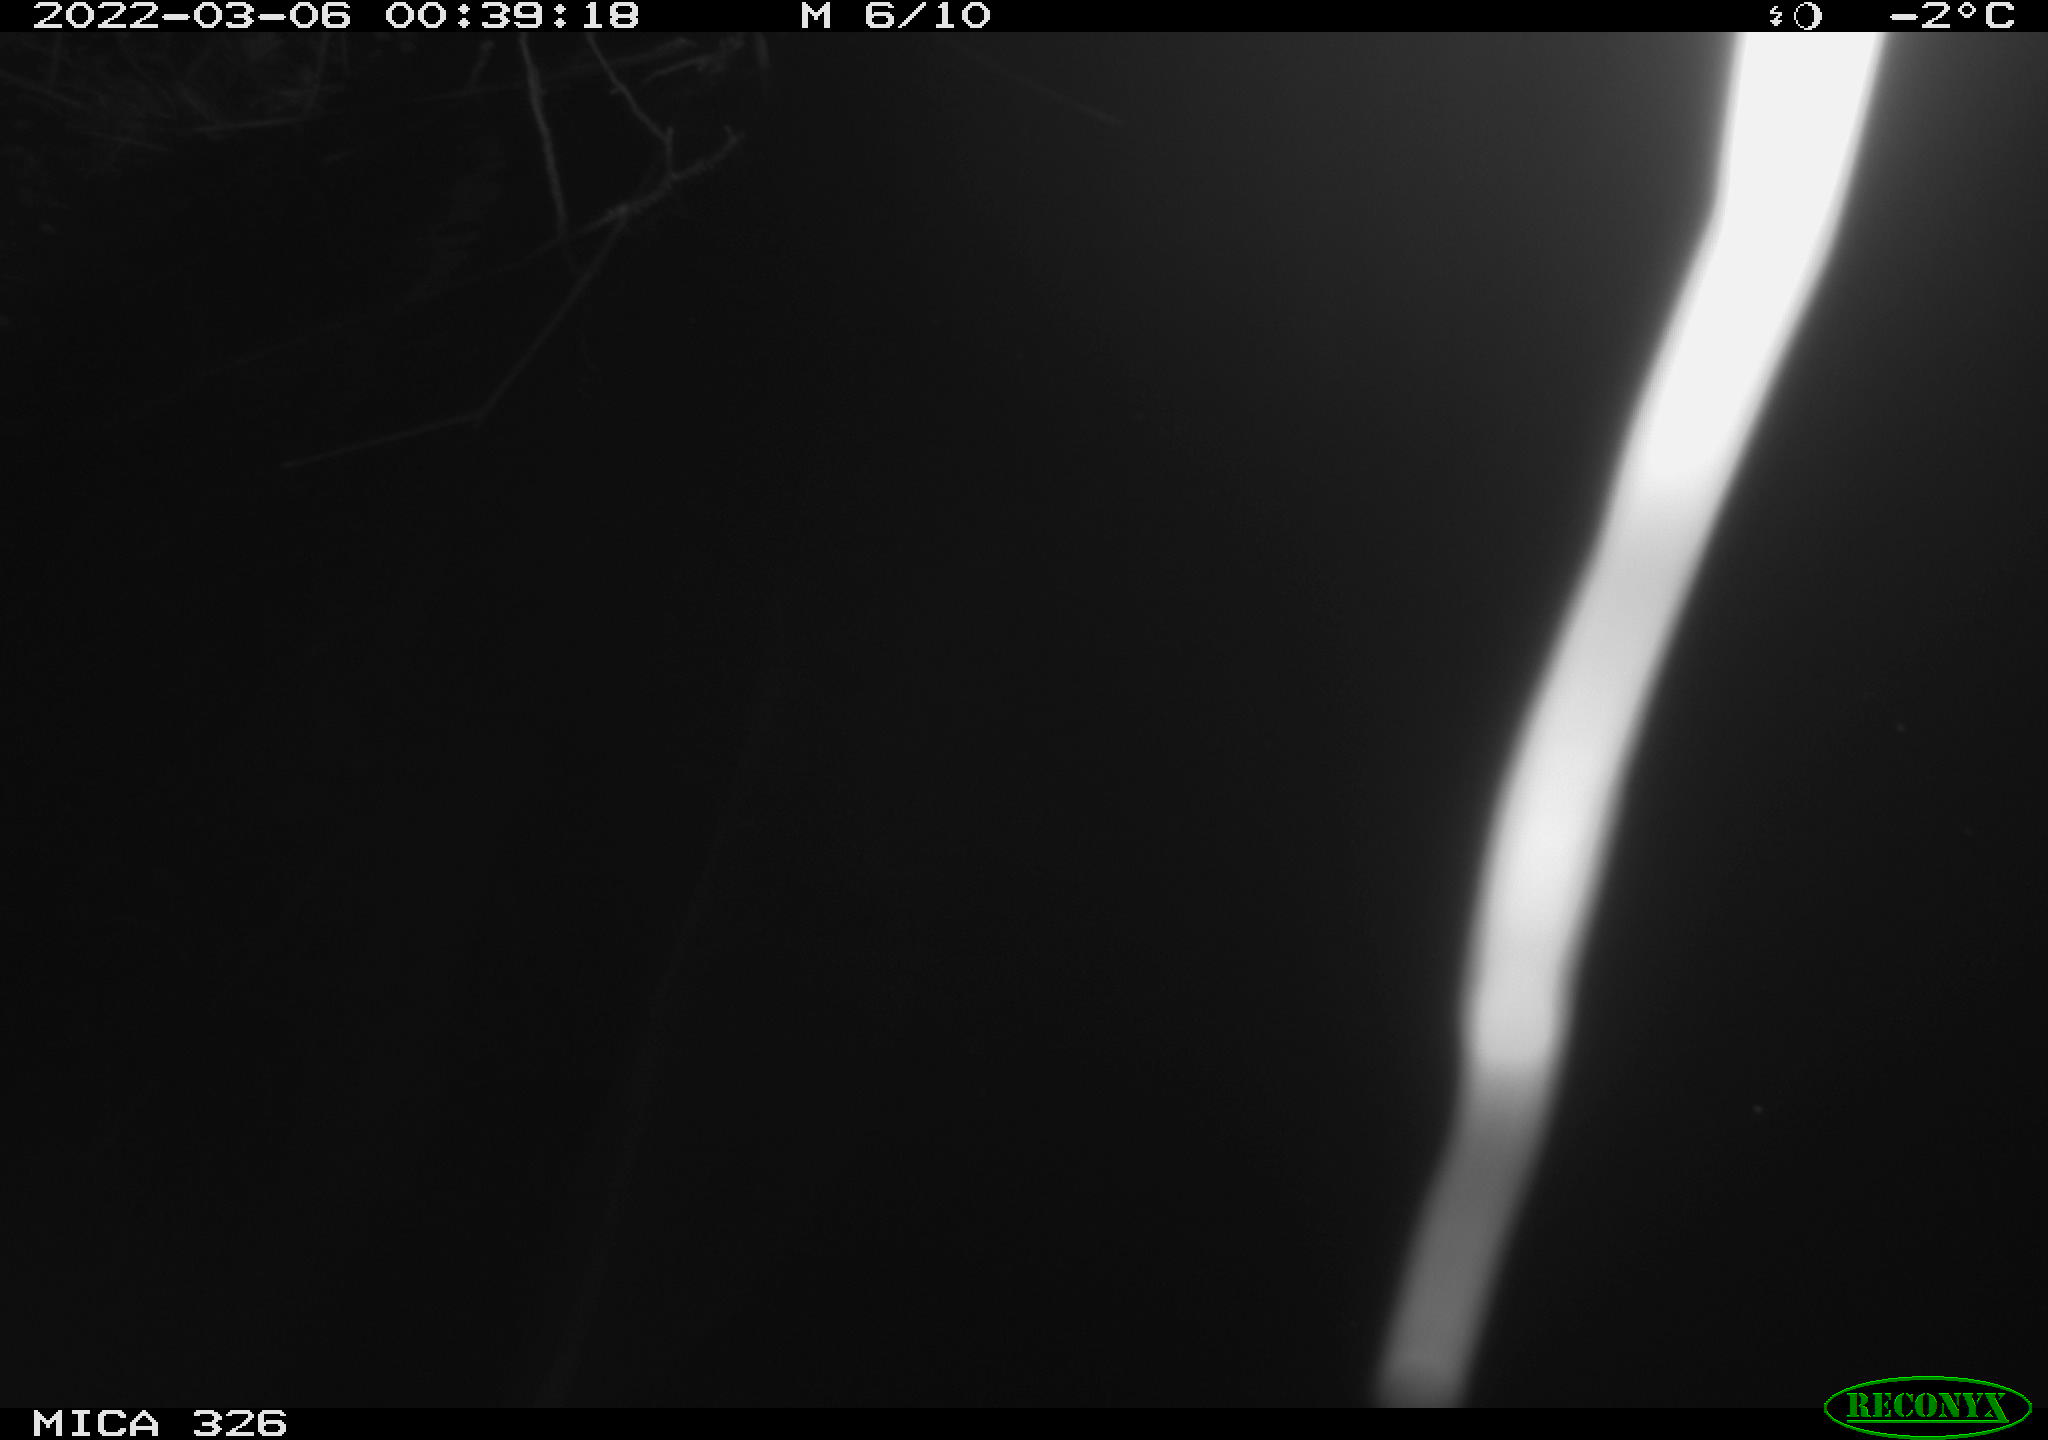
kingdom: Animalia
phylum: Chordata
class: Mammalia
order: Rodentia
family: Cricetidae
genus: Ondatra
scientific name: Ondatra zibethicus
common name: Muskrat
